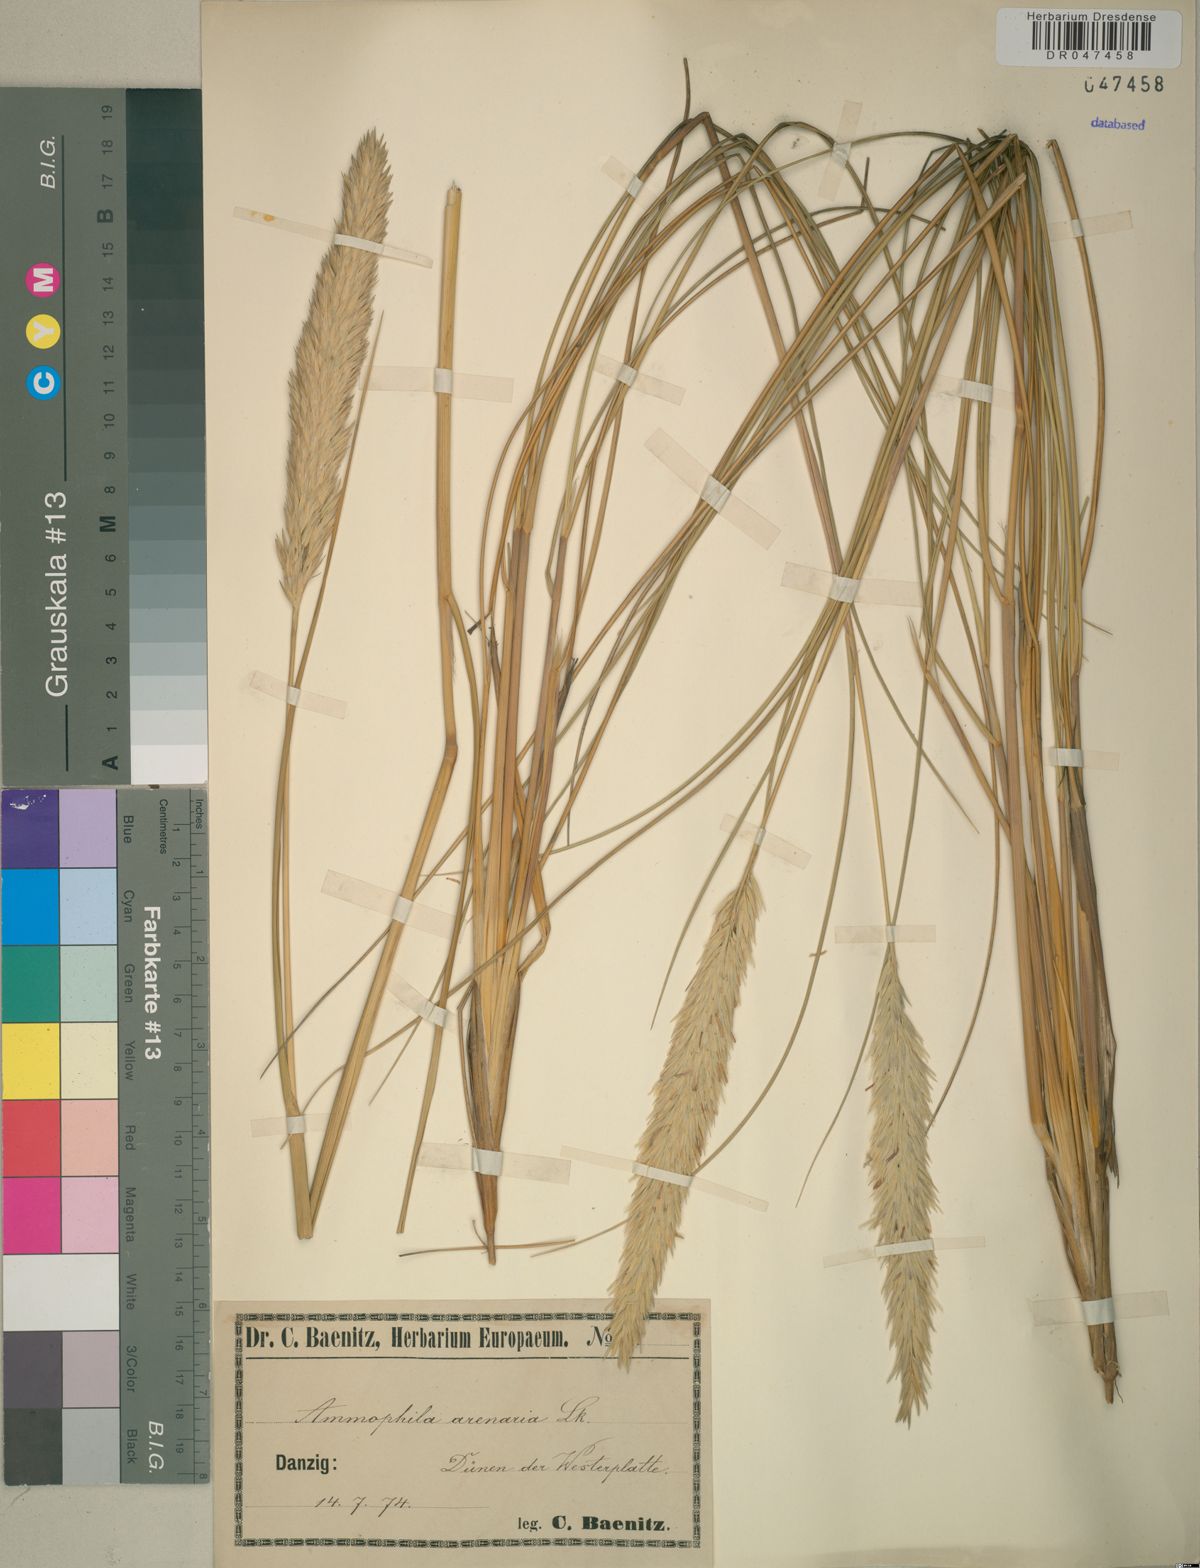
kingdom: Plantae
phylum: Tracheophyta
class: Liliopsida
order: Poales
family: Poaceae
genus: Calamagrostis
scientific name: Calamagrostis arenaria
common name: European beachgrass
